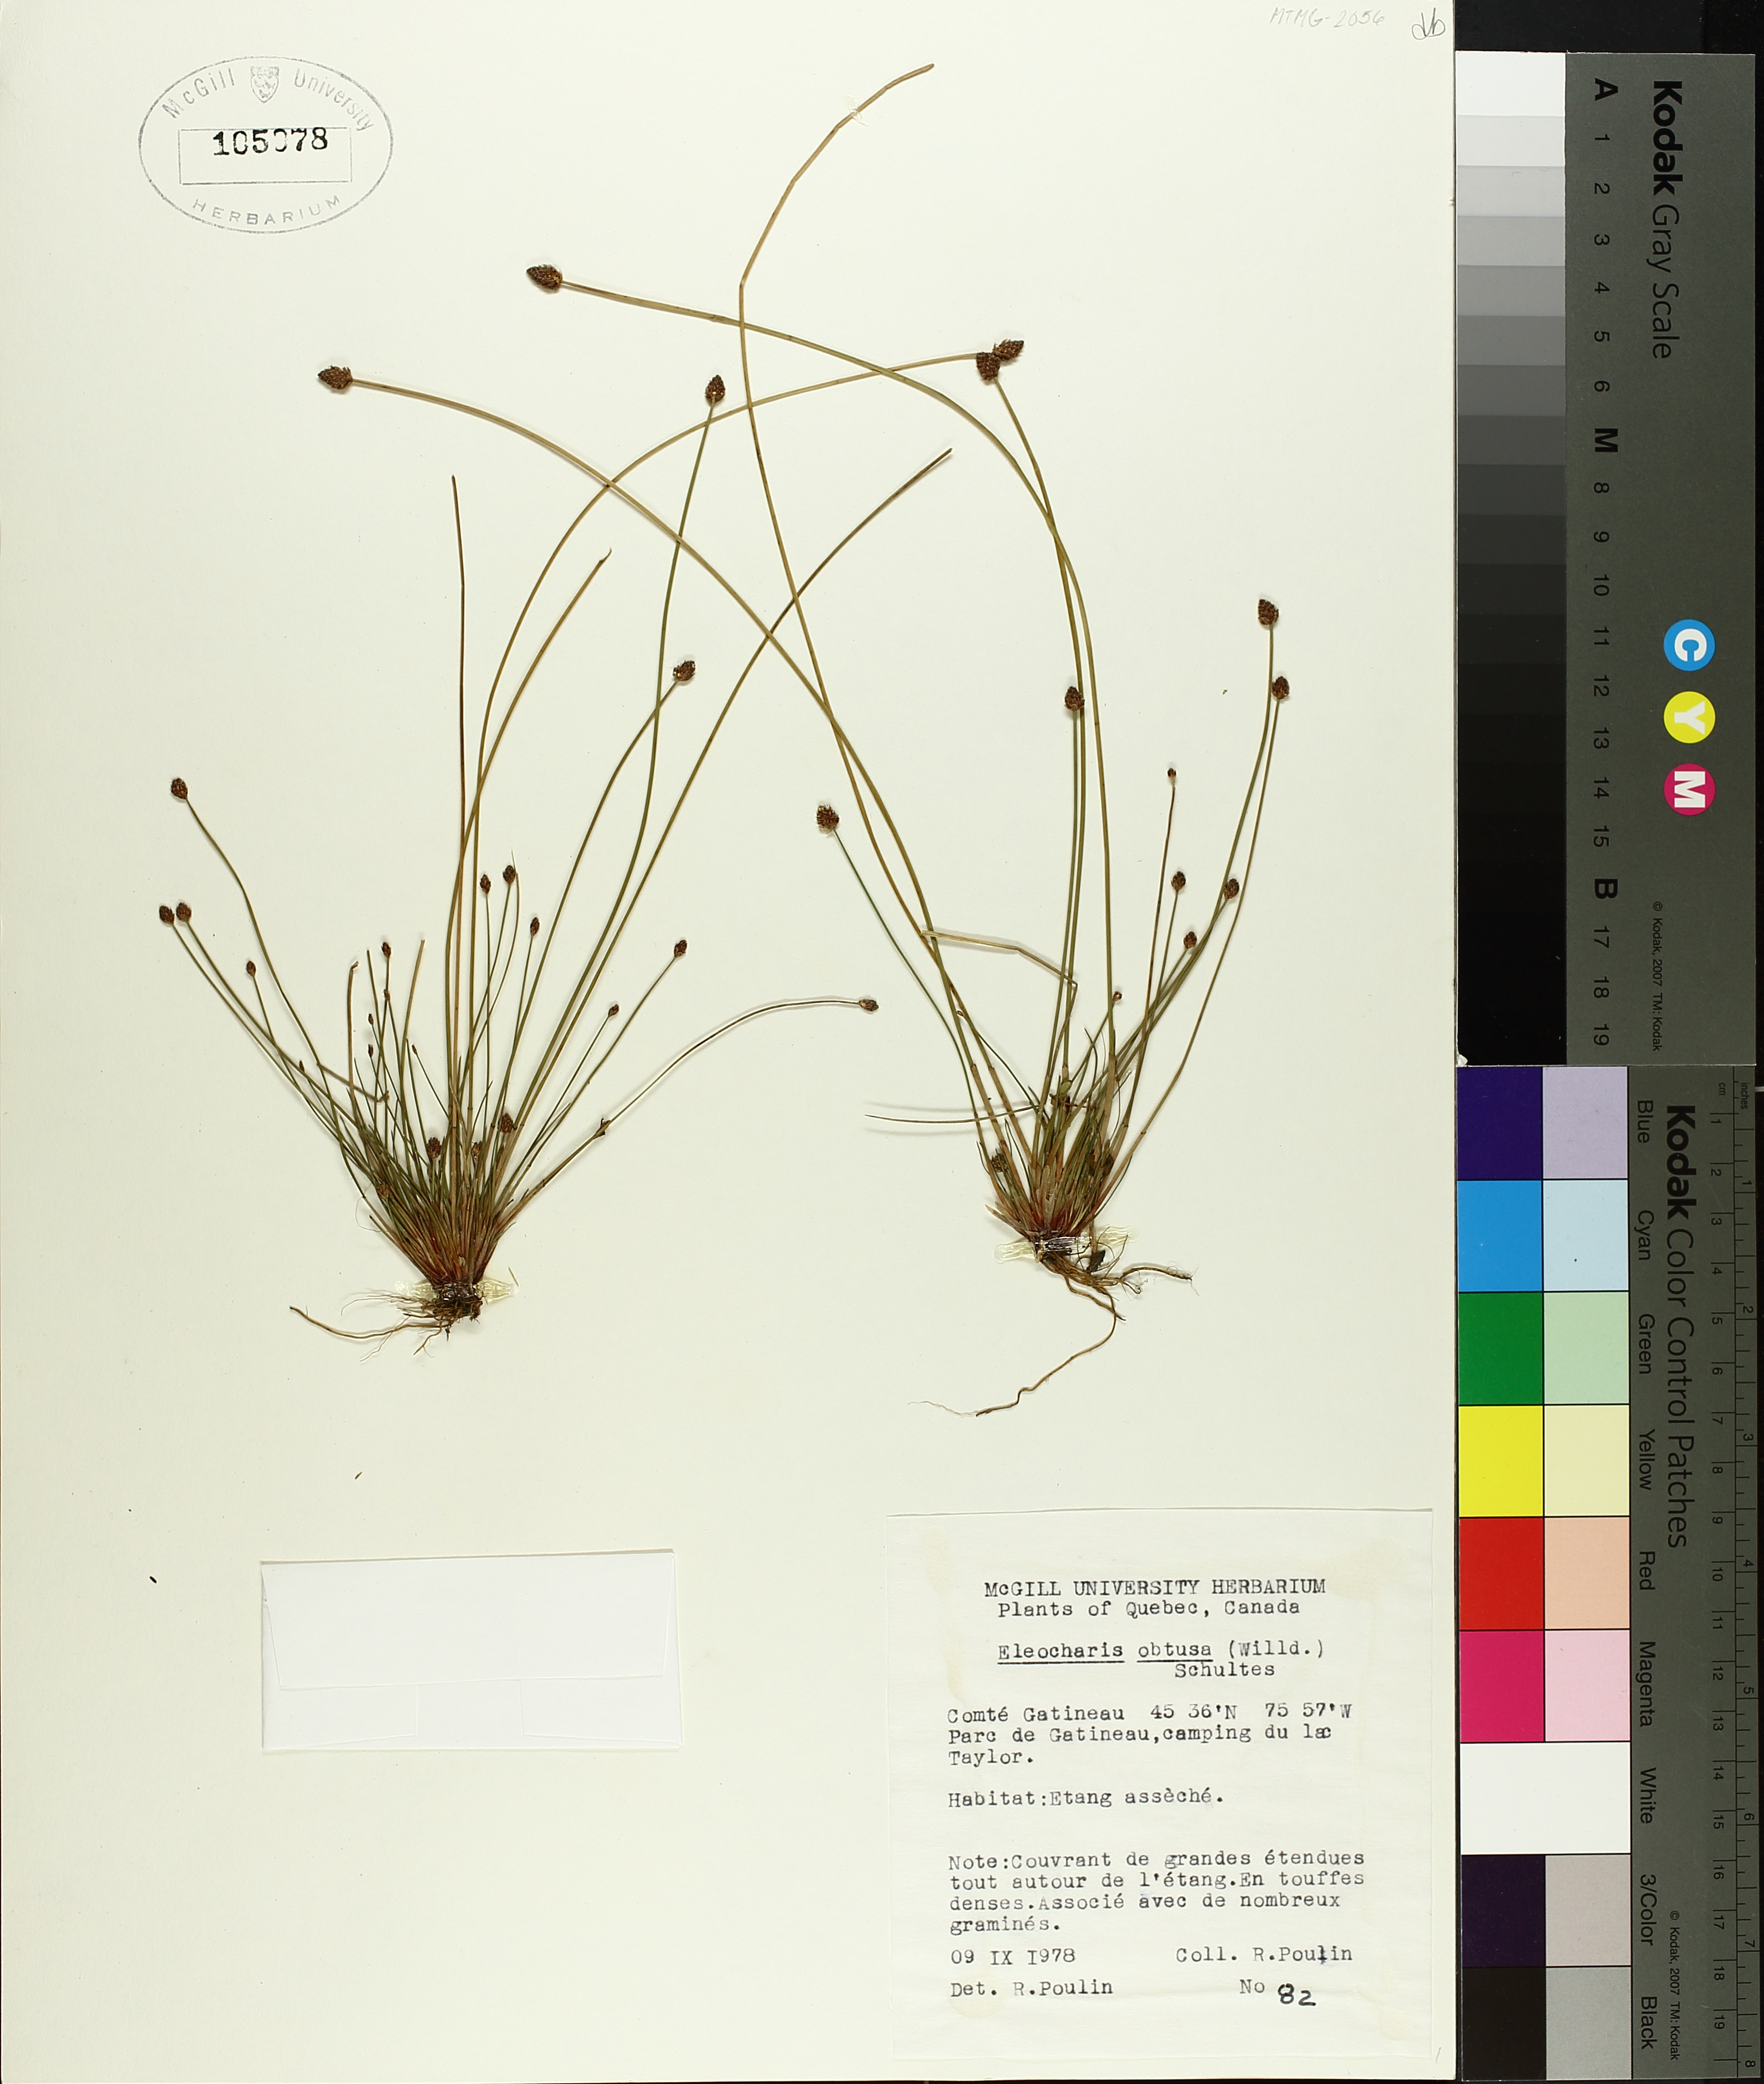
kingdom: Plantae
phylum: Tracheophyta
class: Liliopsida
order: Poales
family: Cyperaceae
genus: Eleocharis
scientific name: Eleocharis obtusa
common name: Blunt spikerush
